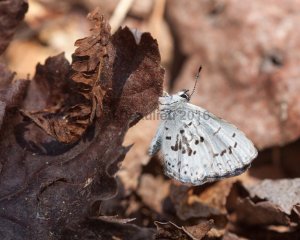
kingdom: Animalia
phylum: Arthropoda
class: Insecta
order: Lepidoptera
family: Lycaenidae
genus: Celastrina
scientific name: Celastrina lucia
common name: Northern Spring Azure
